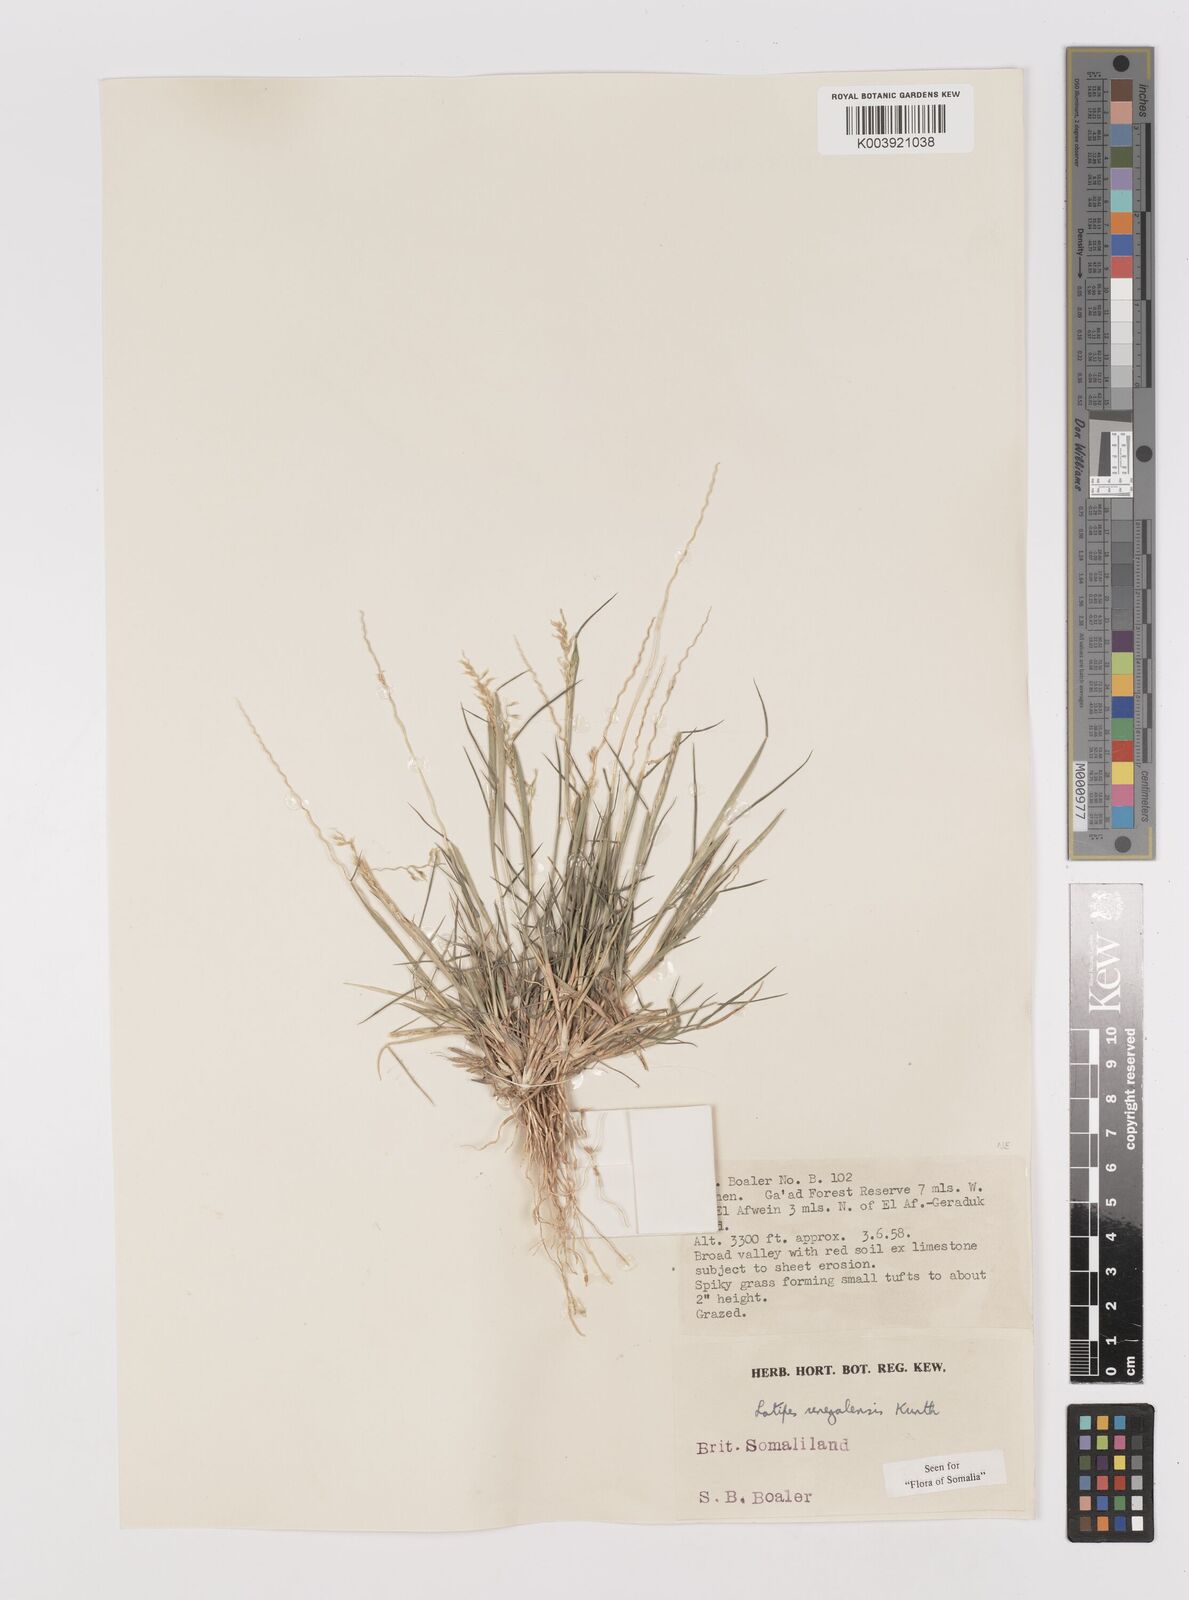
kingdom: Plantae
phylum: Tracheophyta
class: Liliopsida
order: Poales
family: Poaceae
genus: Leptothrium
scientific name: Leptothrium senegalense
